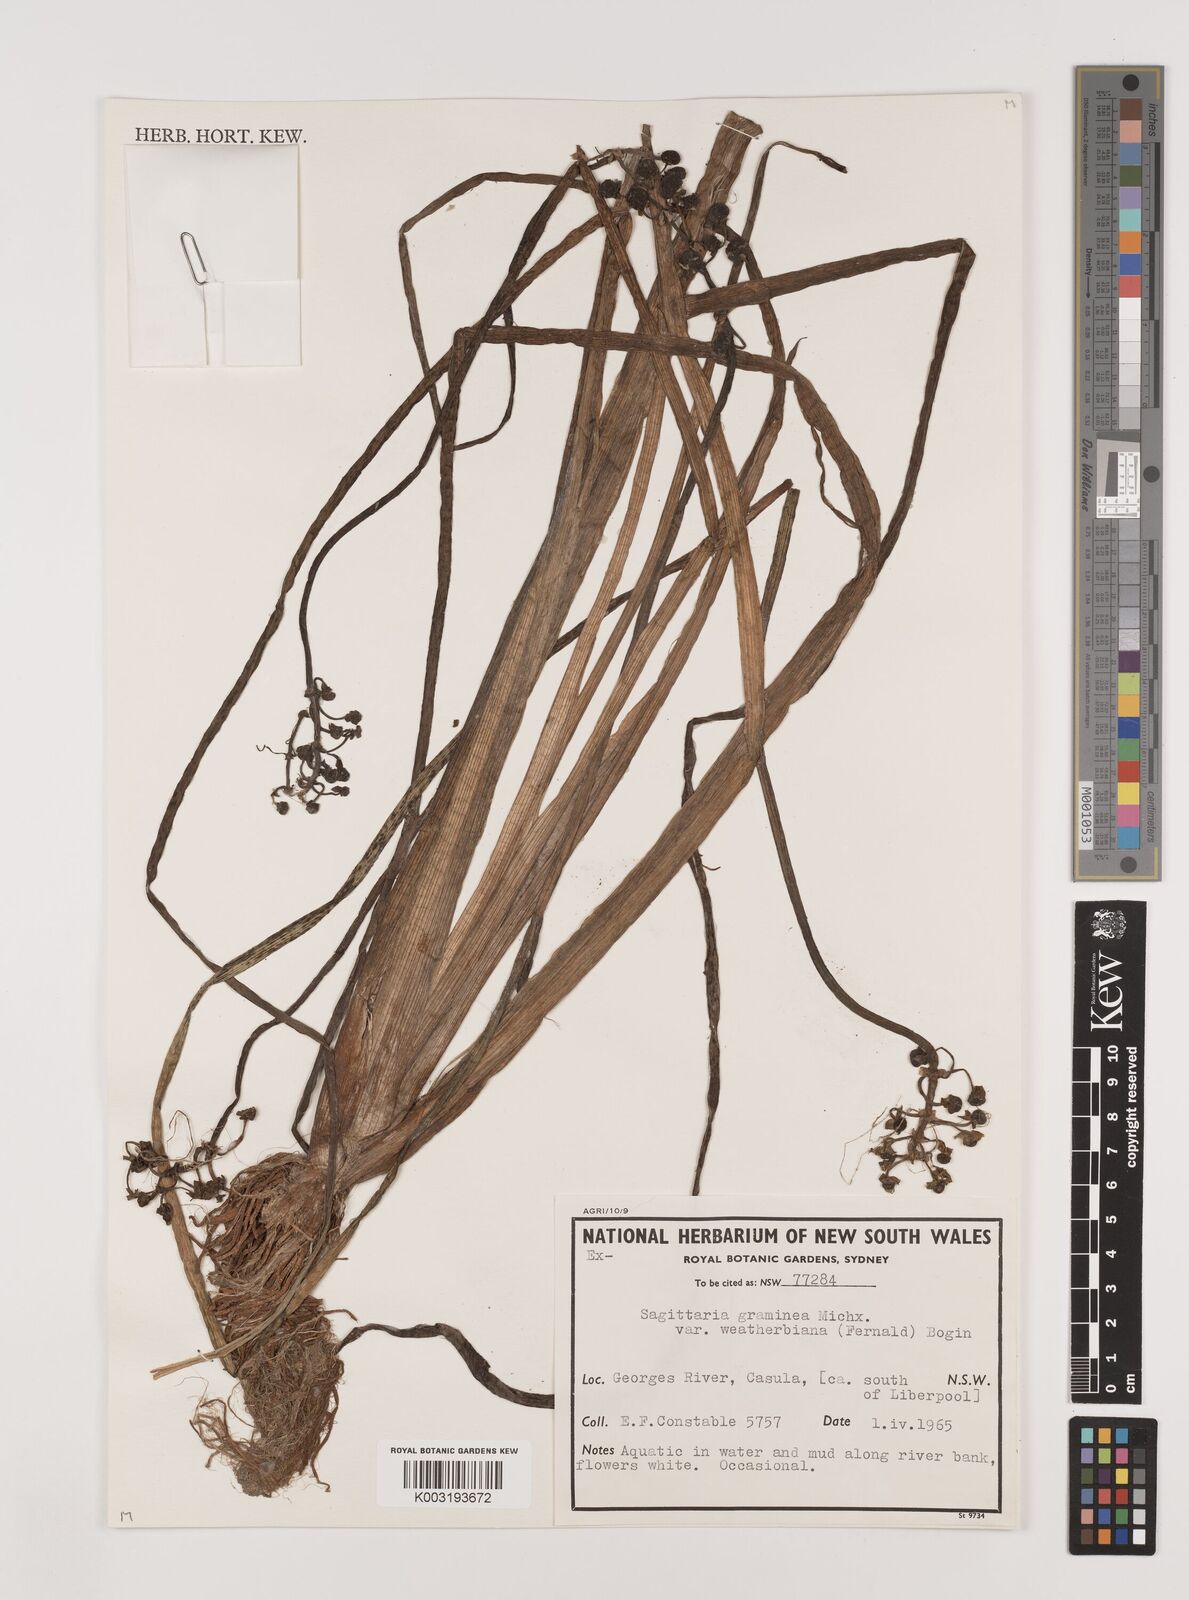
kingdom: Plantae
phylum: Tracheophyta
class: Liliopsida
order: Alismatales
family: Alismataceae
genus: Sagittaria
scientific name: Sagittaria graminea
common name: Grass-leaved arrowhead
